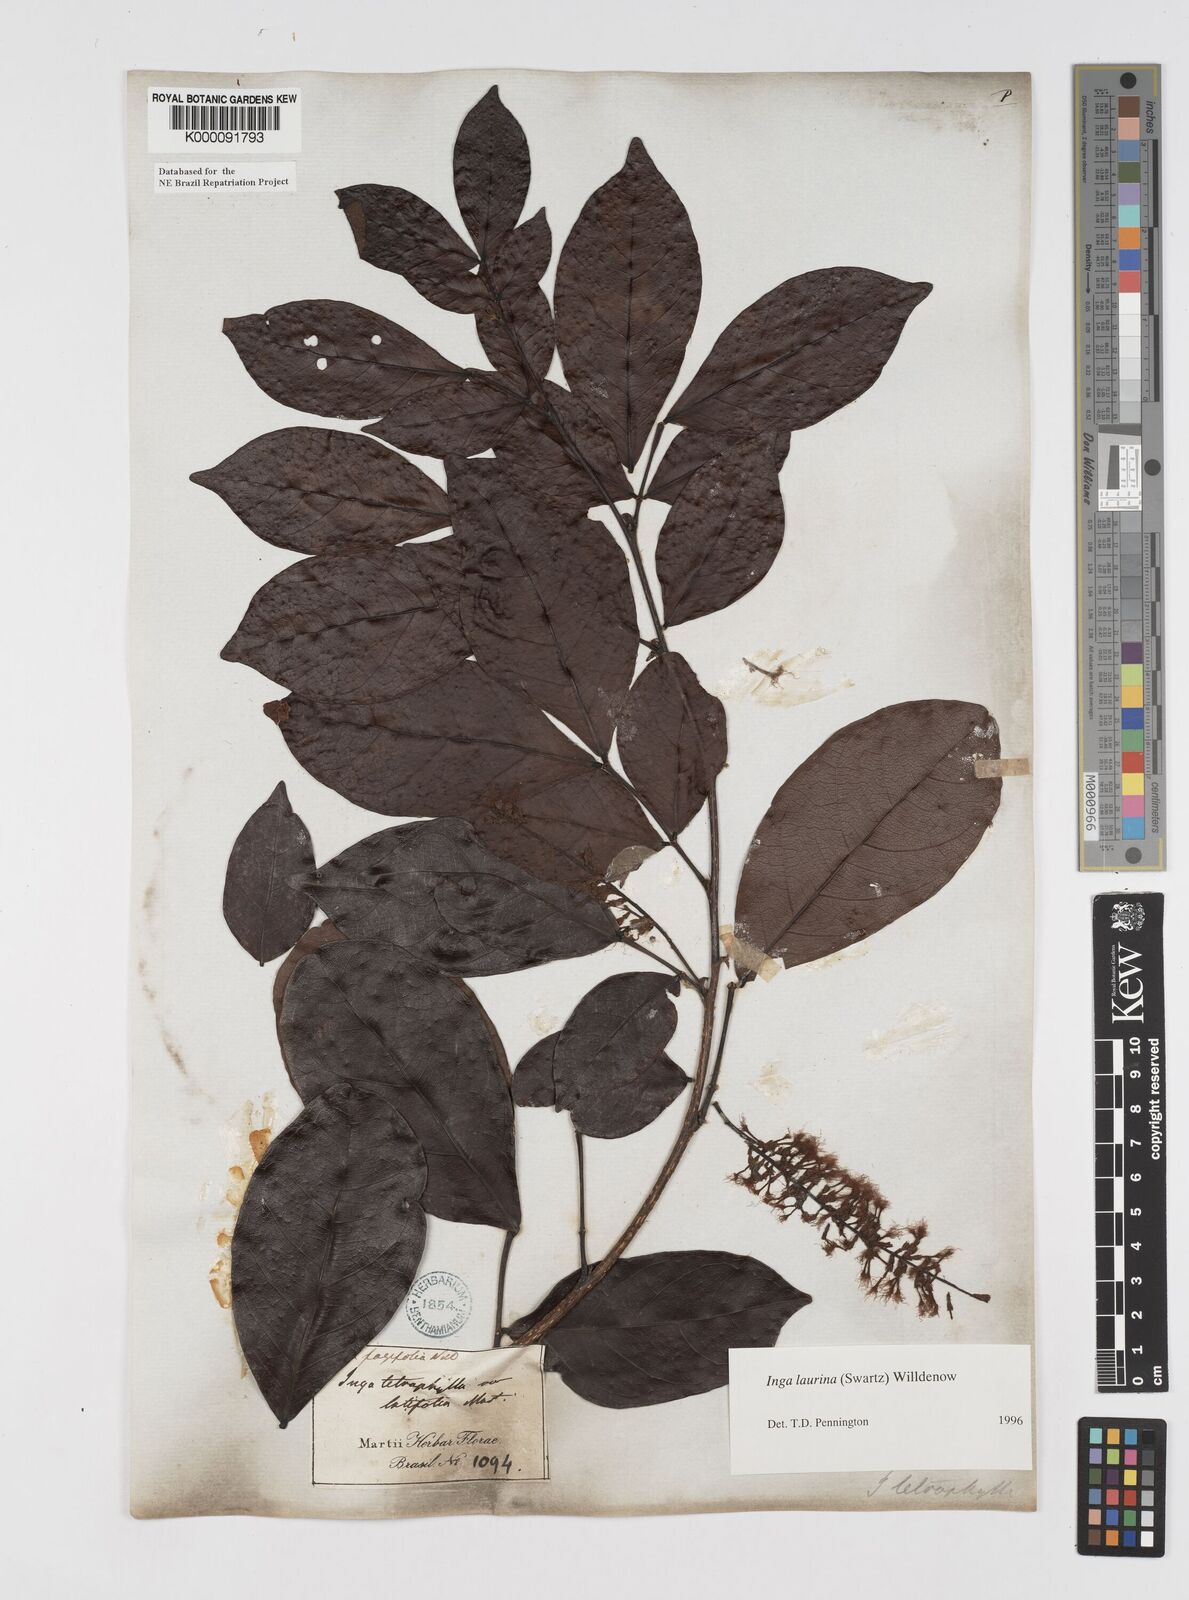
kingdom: Plantae
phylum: Tracheophyta
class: Magnoliopsida
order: Fabales
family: Fabaceae
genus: Inga
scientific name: Inga laurina
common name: Red wood
